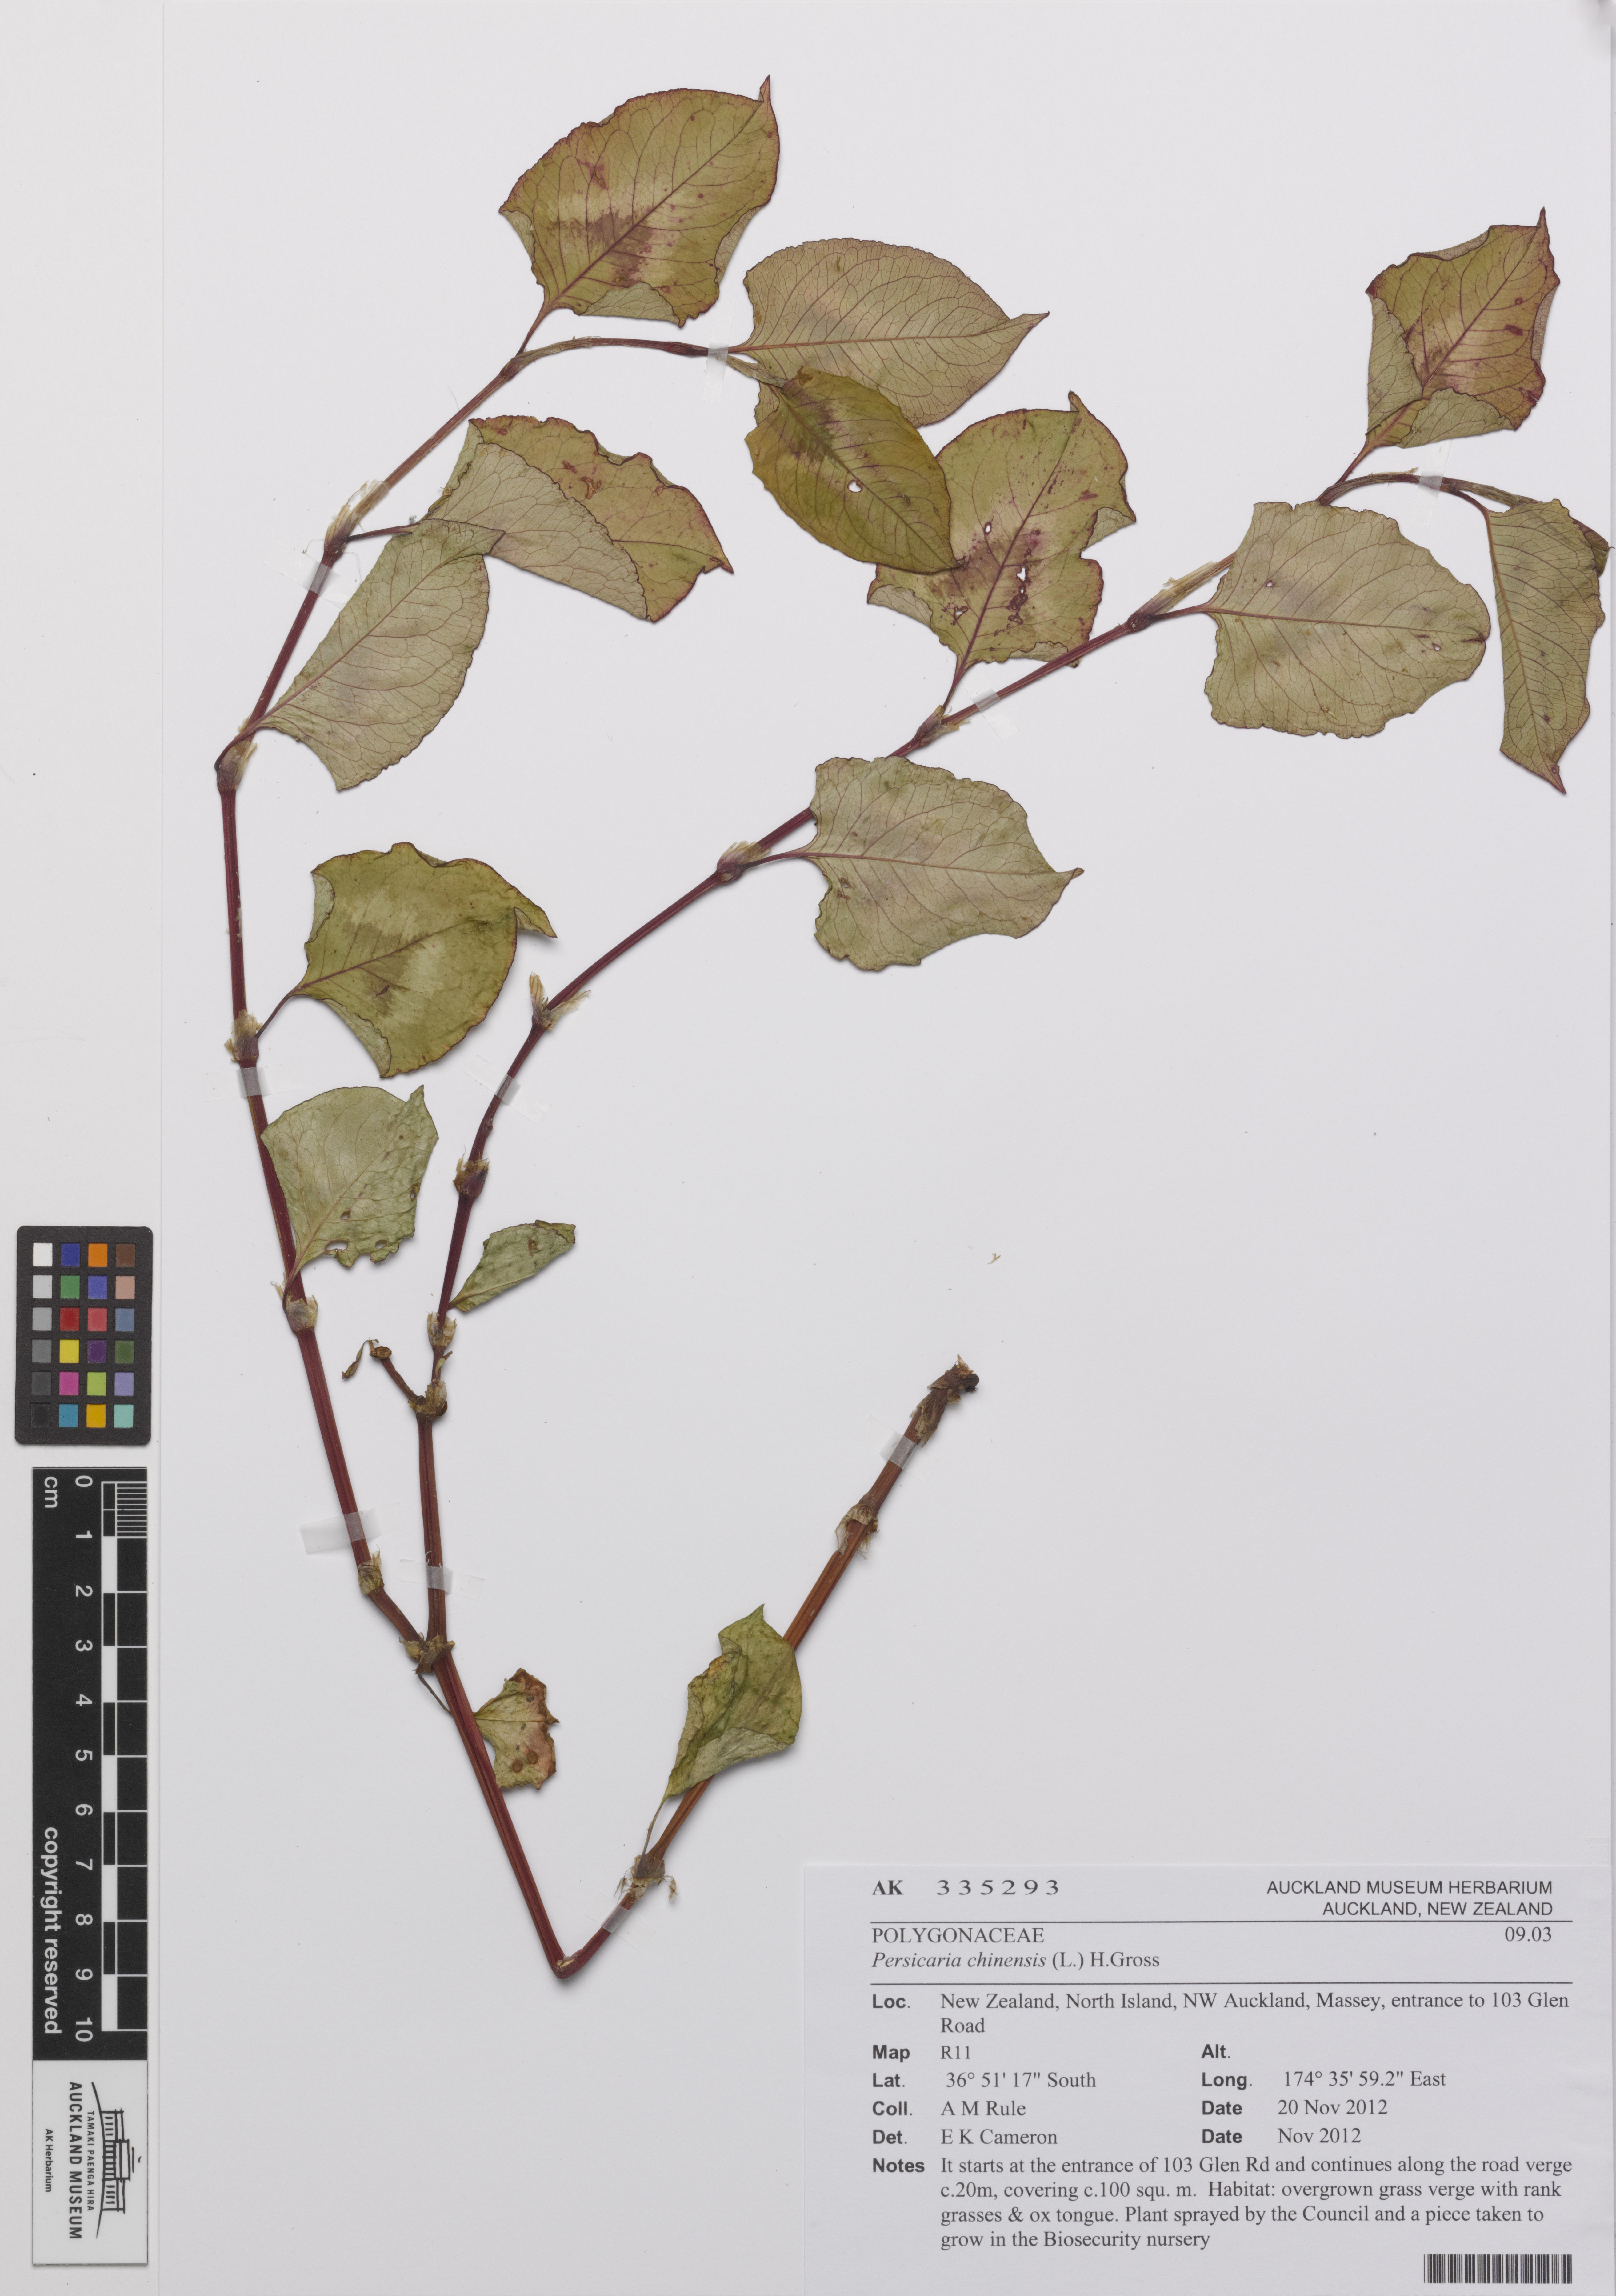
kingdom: Plantae
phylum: Tracheophyta
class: Magnoliopsida
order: Caryophyllales
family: Polygonaceae
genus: Persicaria
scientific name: Persicaria chinensis
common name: Chinese knotweed
